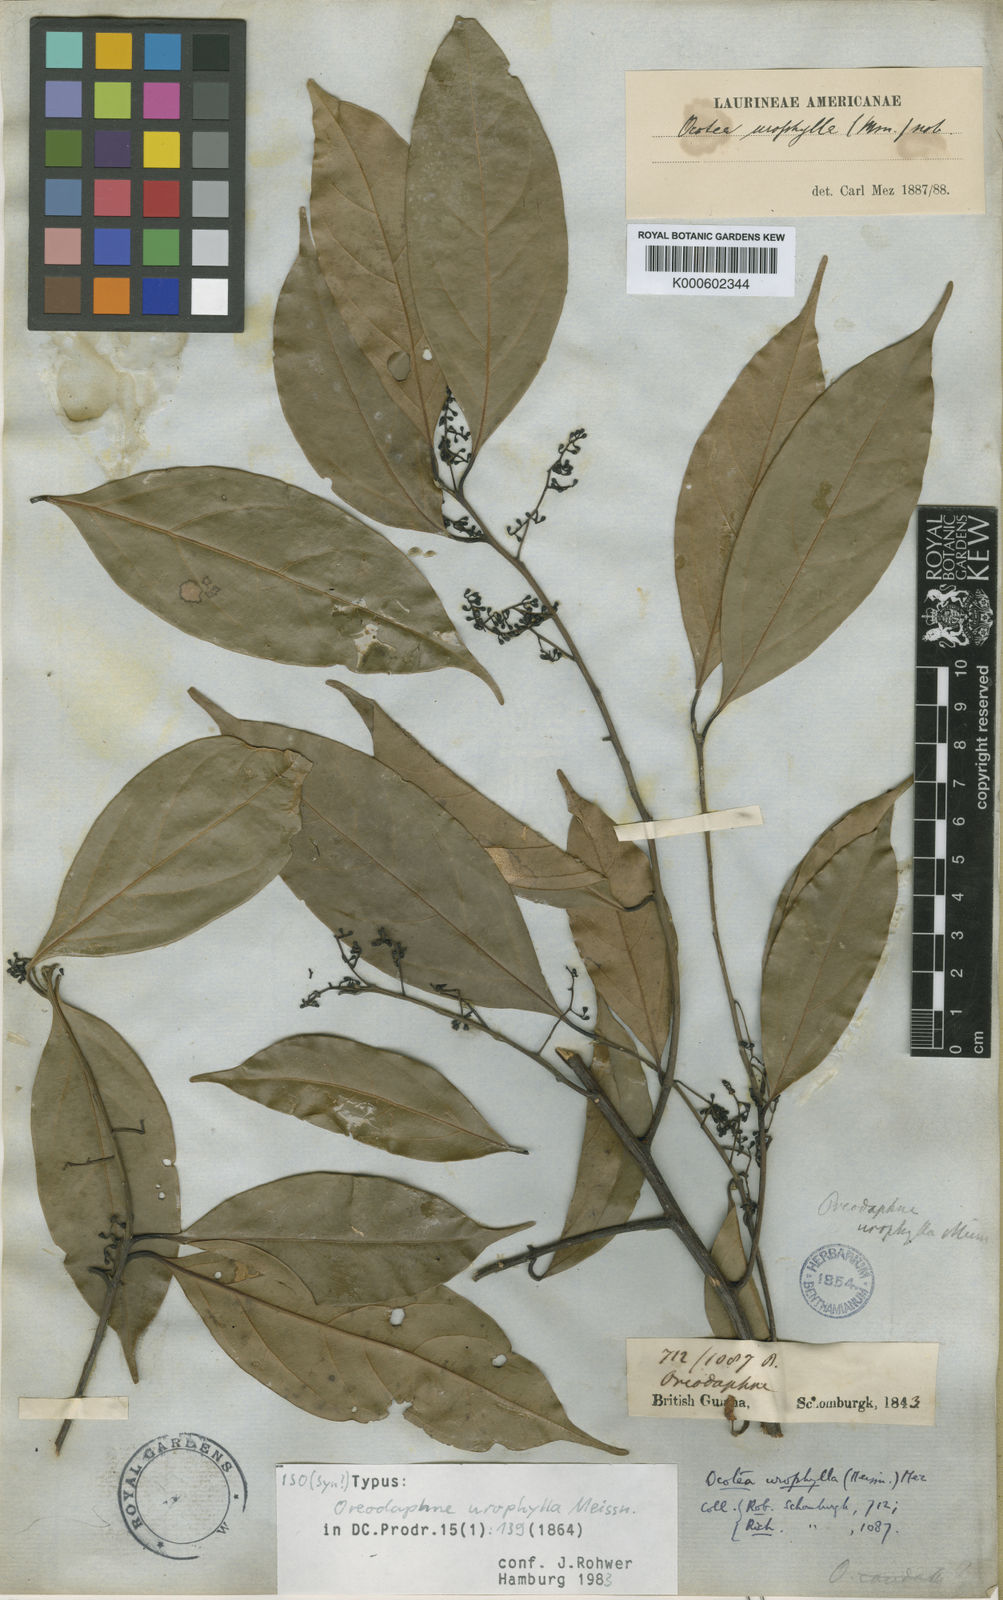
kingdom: Plantae
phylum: Tracheophyta
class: Magnoliopsida
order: Laurales
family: Lauraceae
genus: Ocotea
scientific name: Ocotea leptobotra
